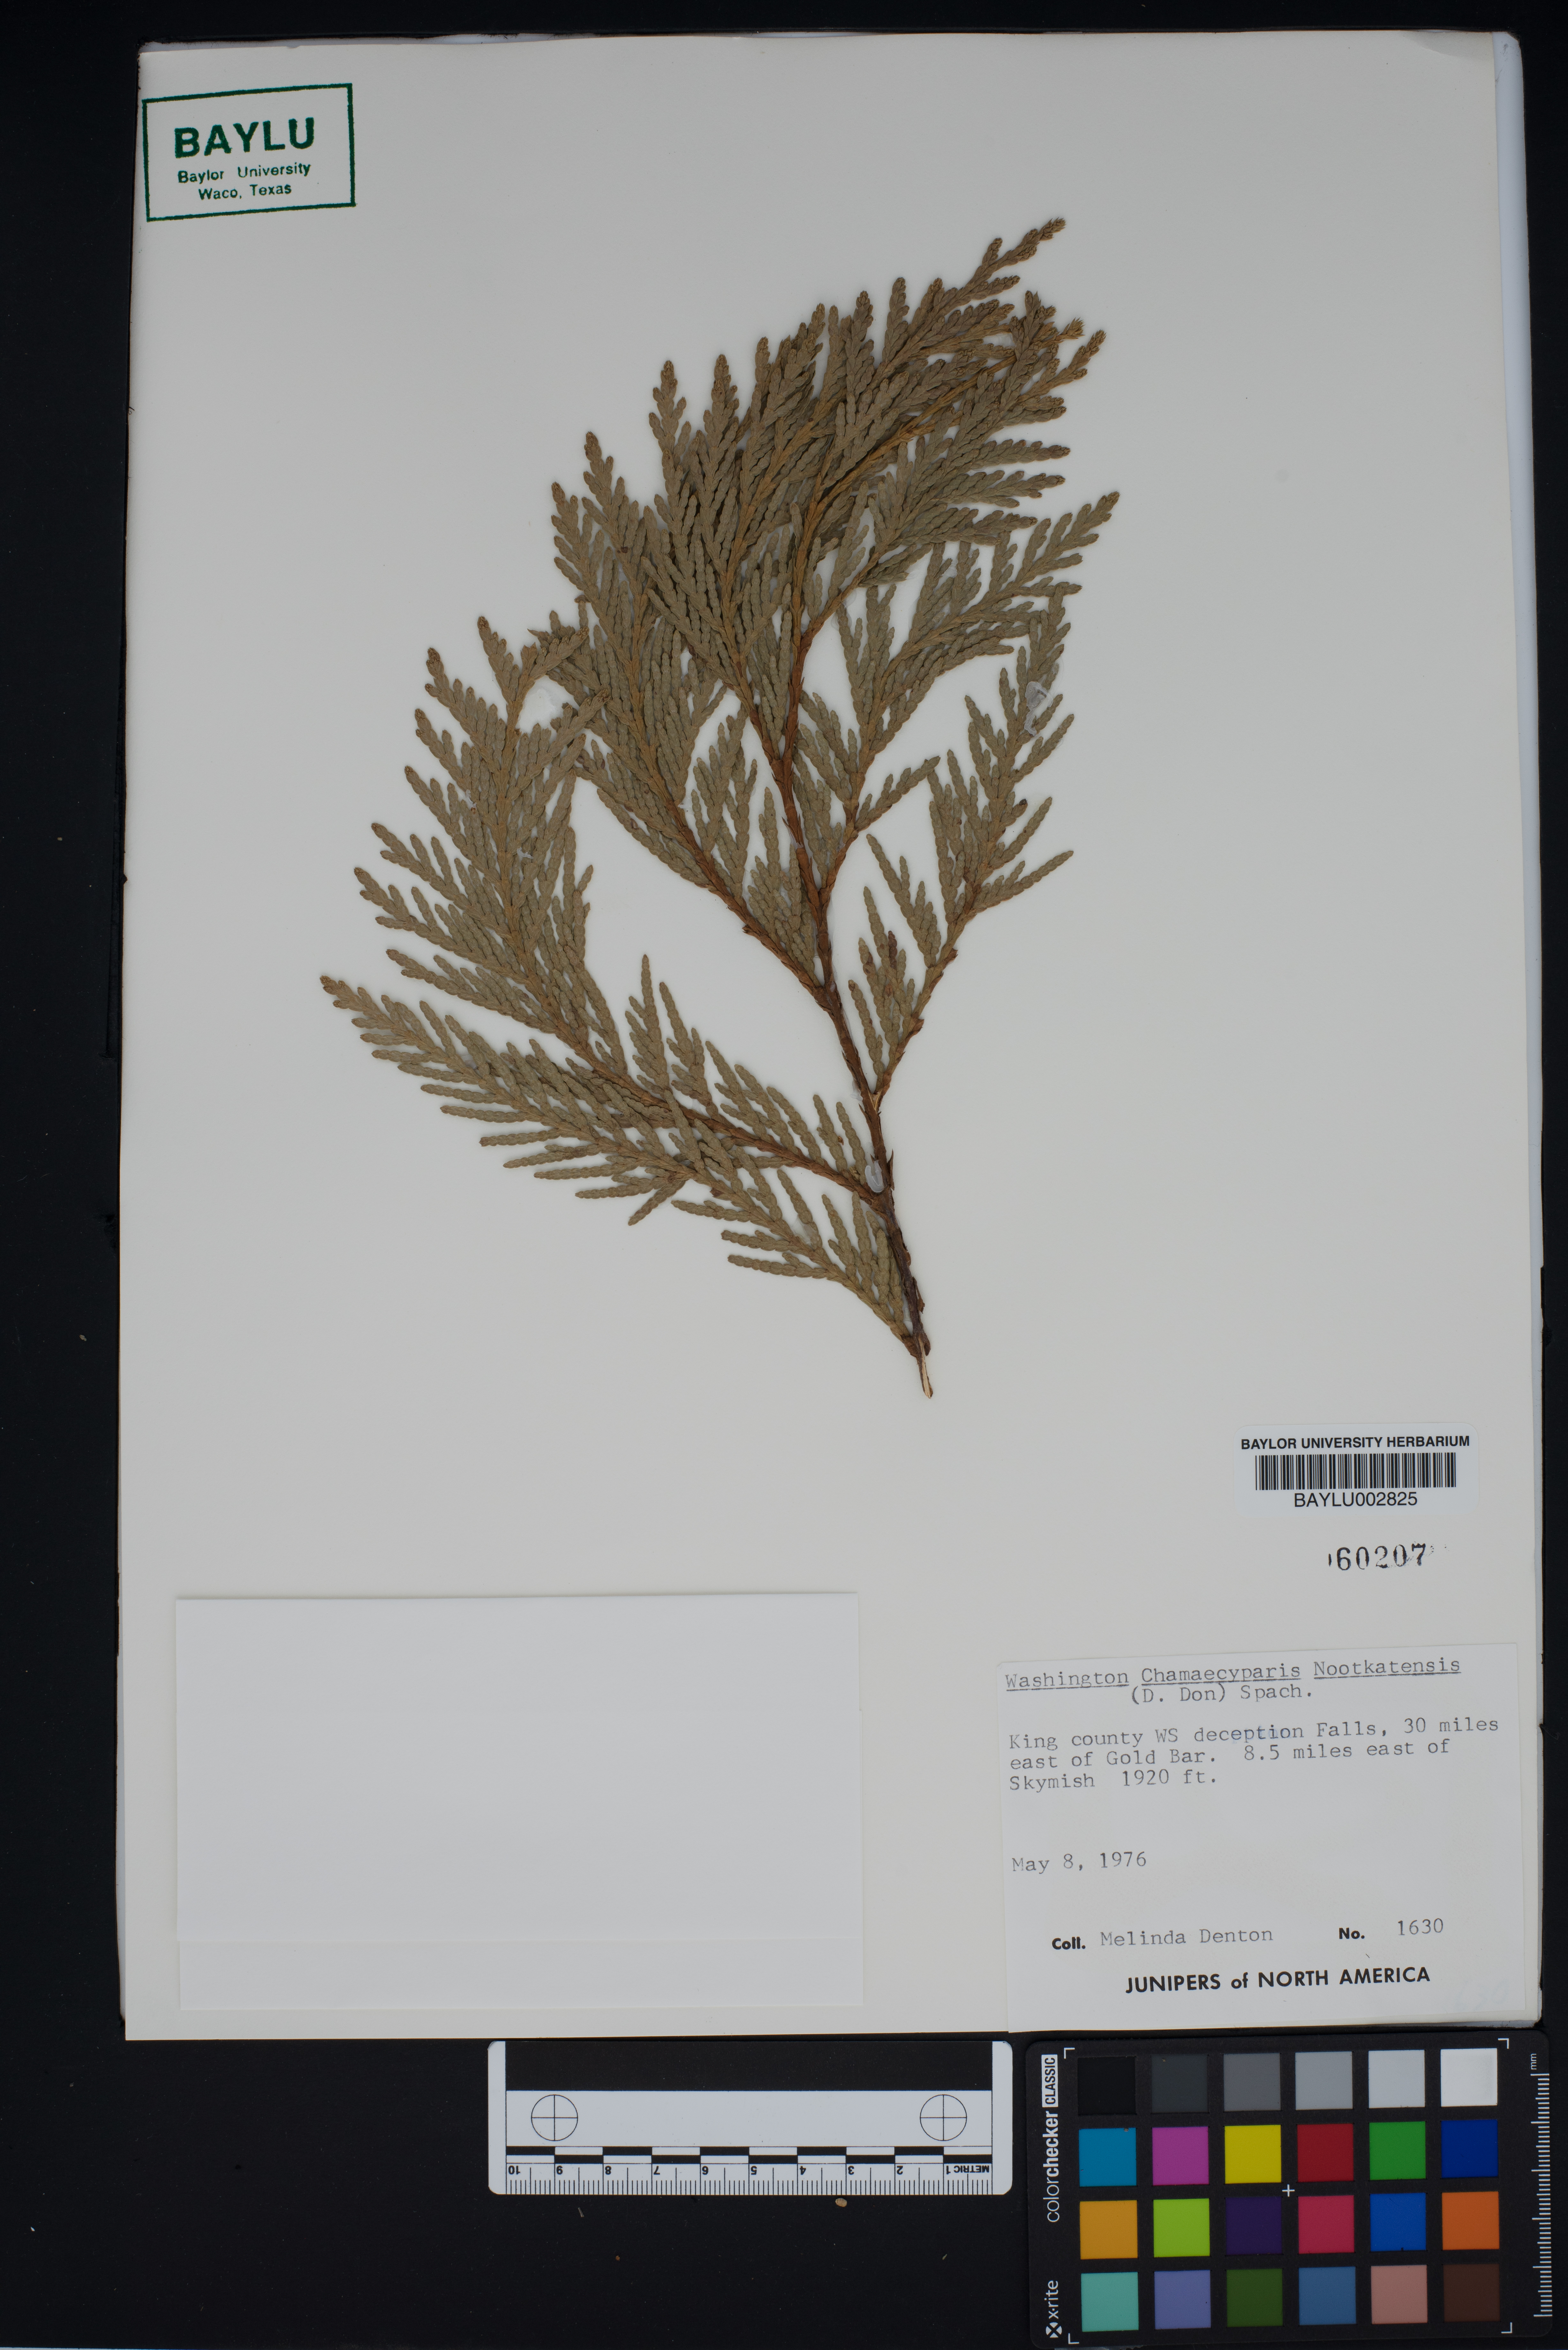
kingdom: Plantae
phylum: Tracheophyta
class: Pinopsida
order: Pinales
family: Cupressaceae
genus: Xanthocyparis
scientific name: Xanthocyparis nootkatensis
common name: Nootka cypress
